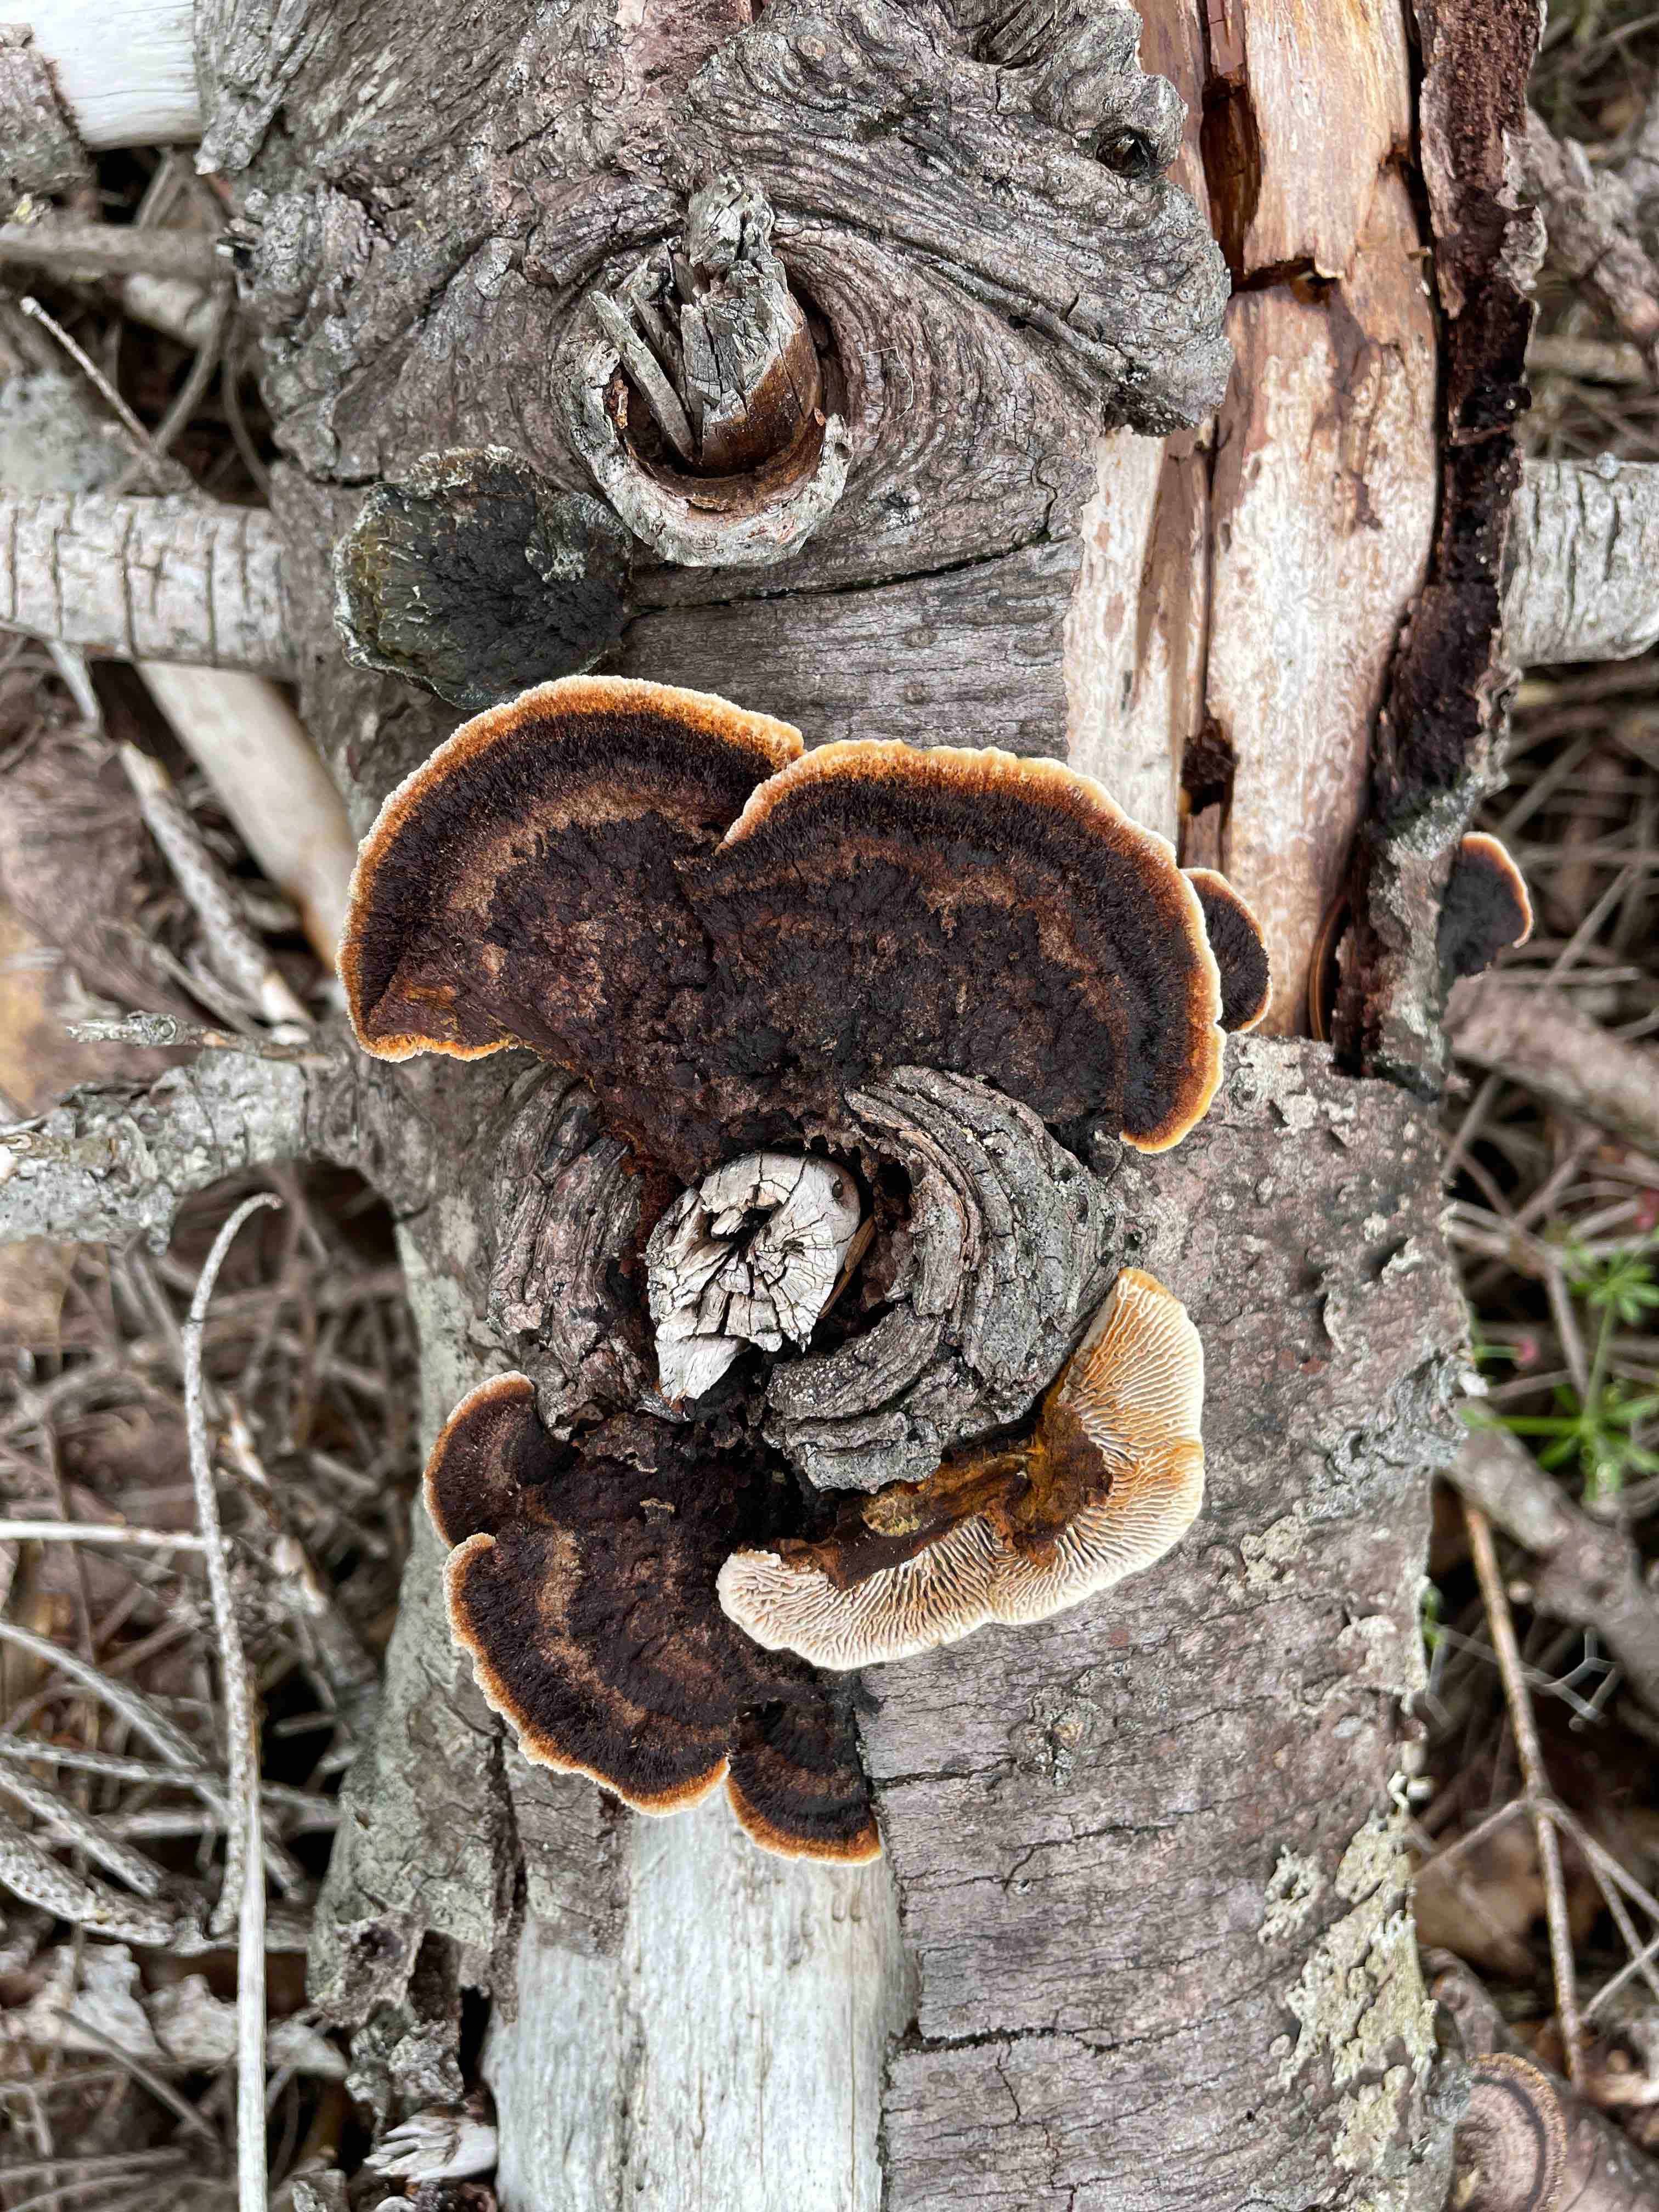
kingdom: Fungi
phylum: Basidiomycota
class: Agaricomycetes
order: Gloeophyllales
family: Gloeophyllaceae
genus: Gloeophyllum
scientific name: Gloeophyllum sepiarium
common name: fyrre-korkhat
